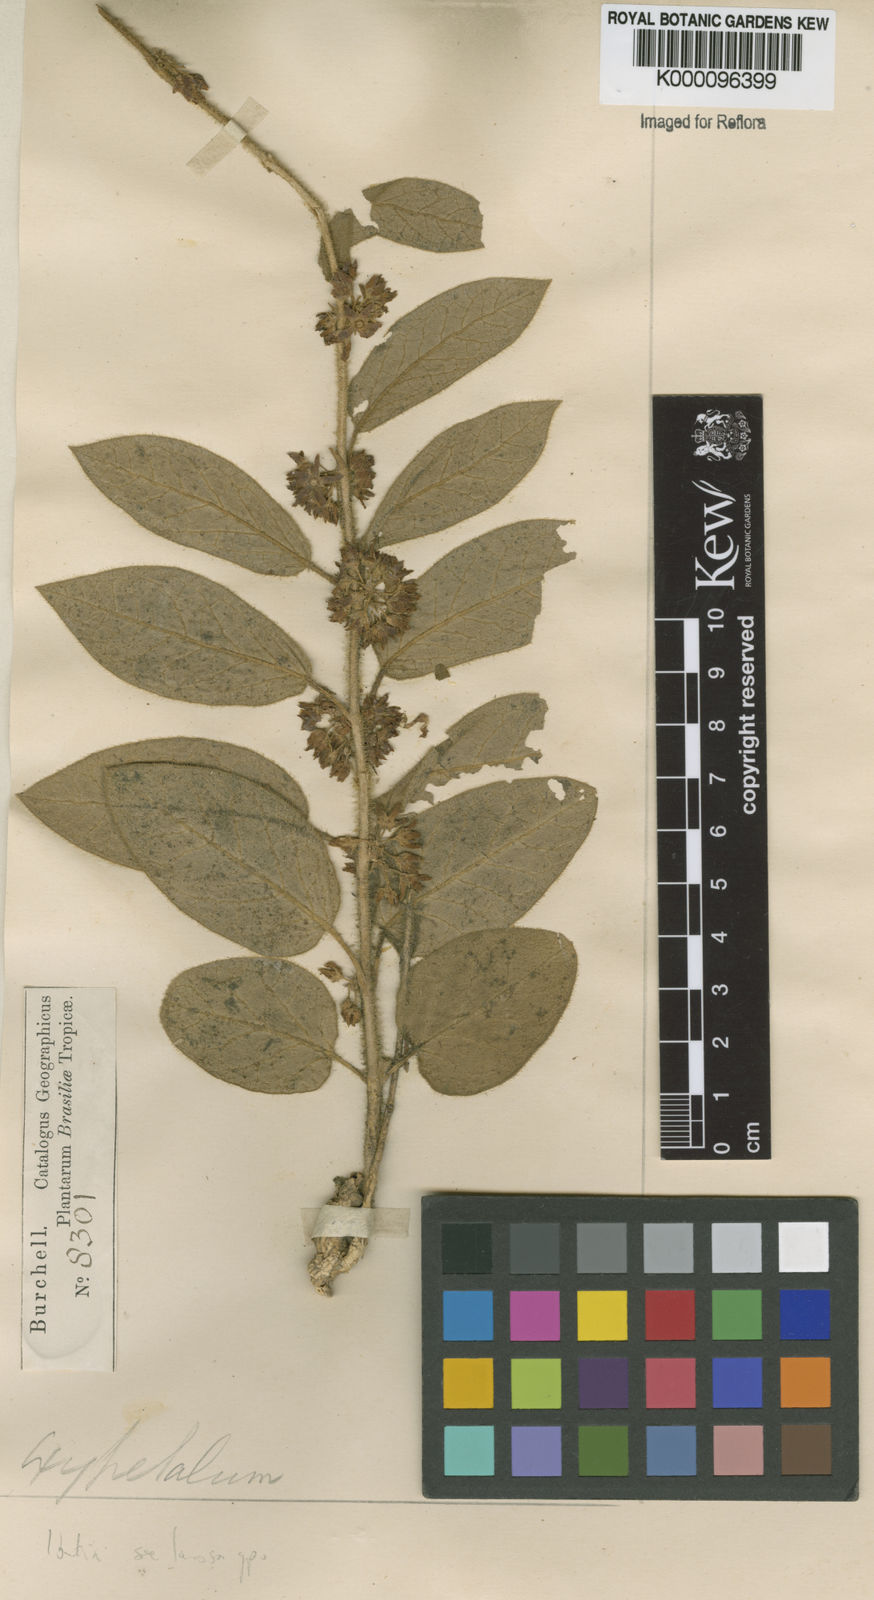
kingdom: Plantae
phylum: Tracheophyta
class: Magnoliopsida
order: Gentianales
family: Apocynaceae
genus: Matelea
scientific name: Matelea
